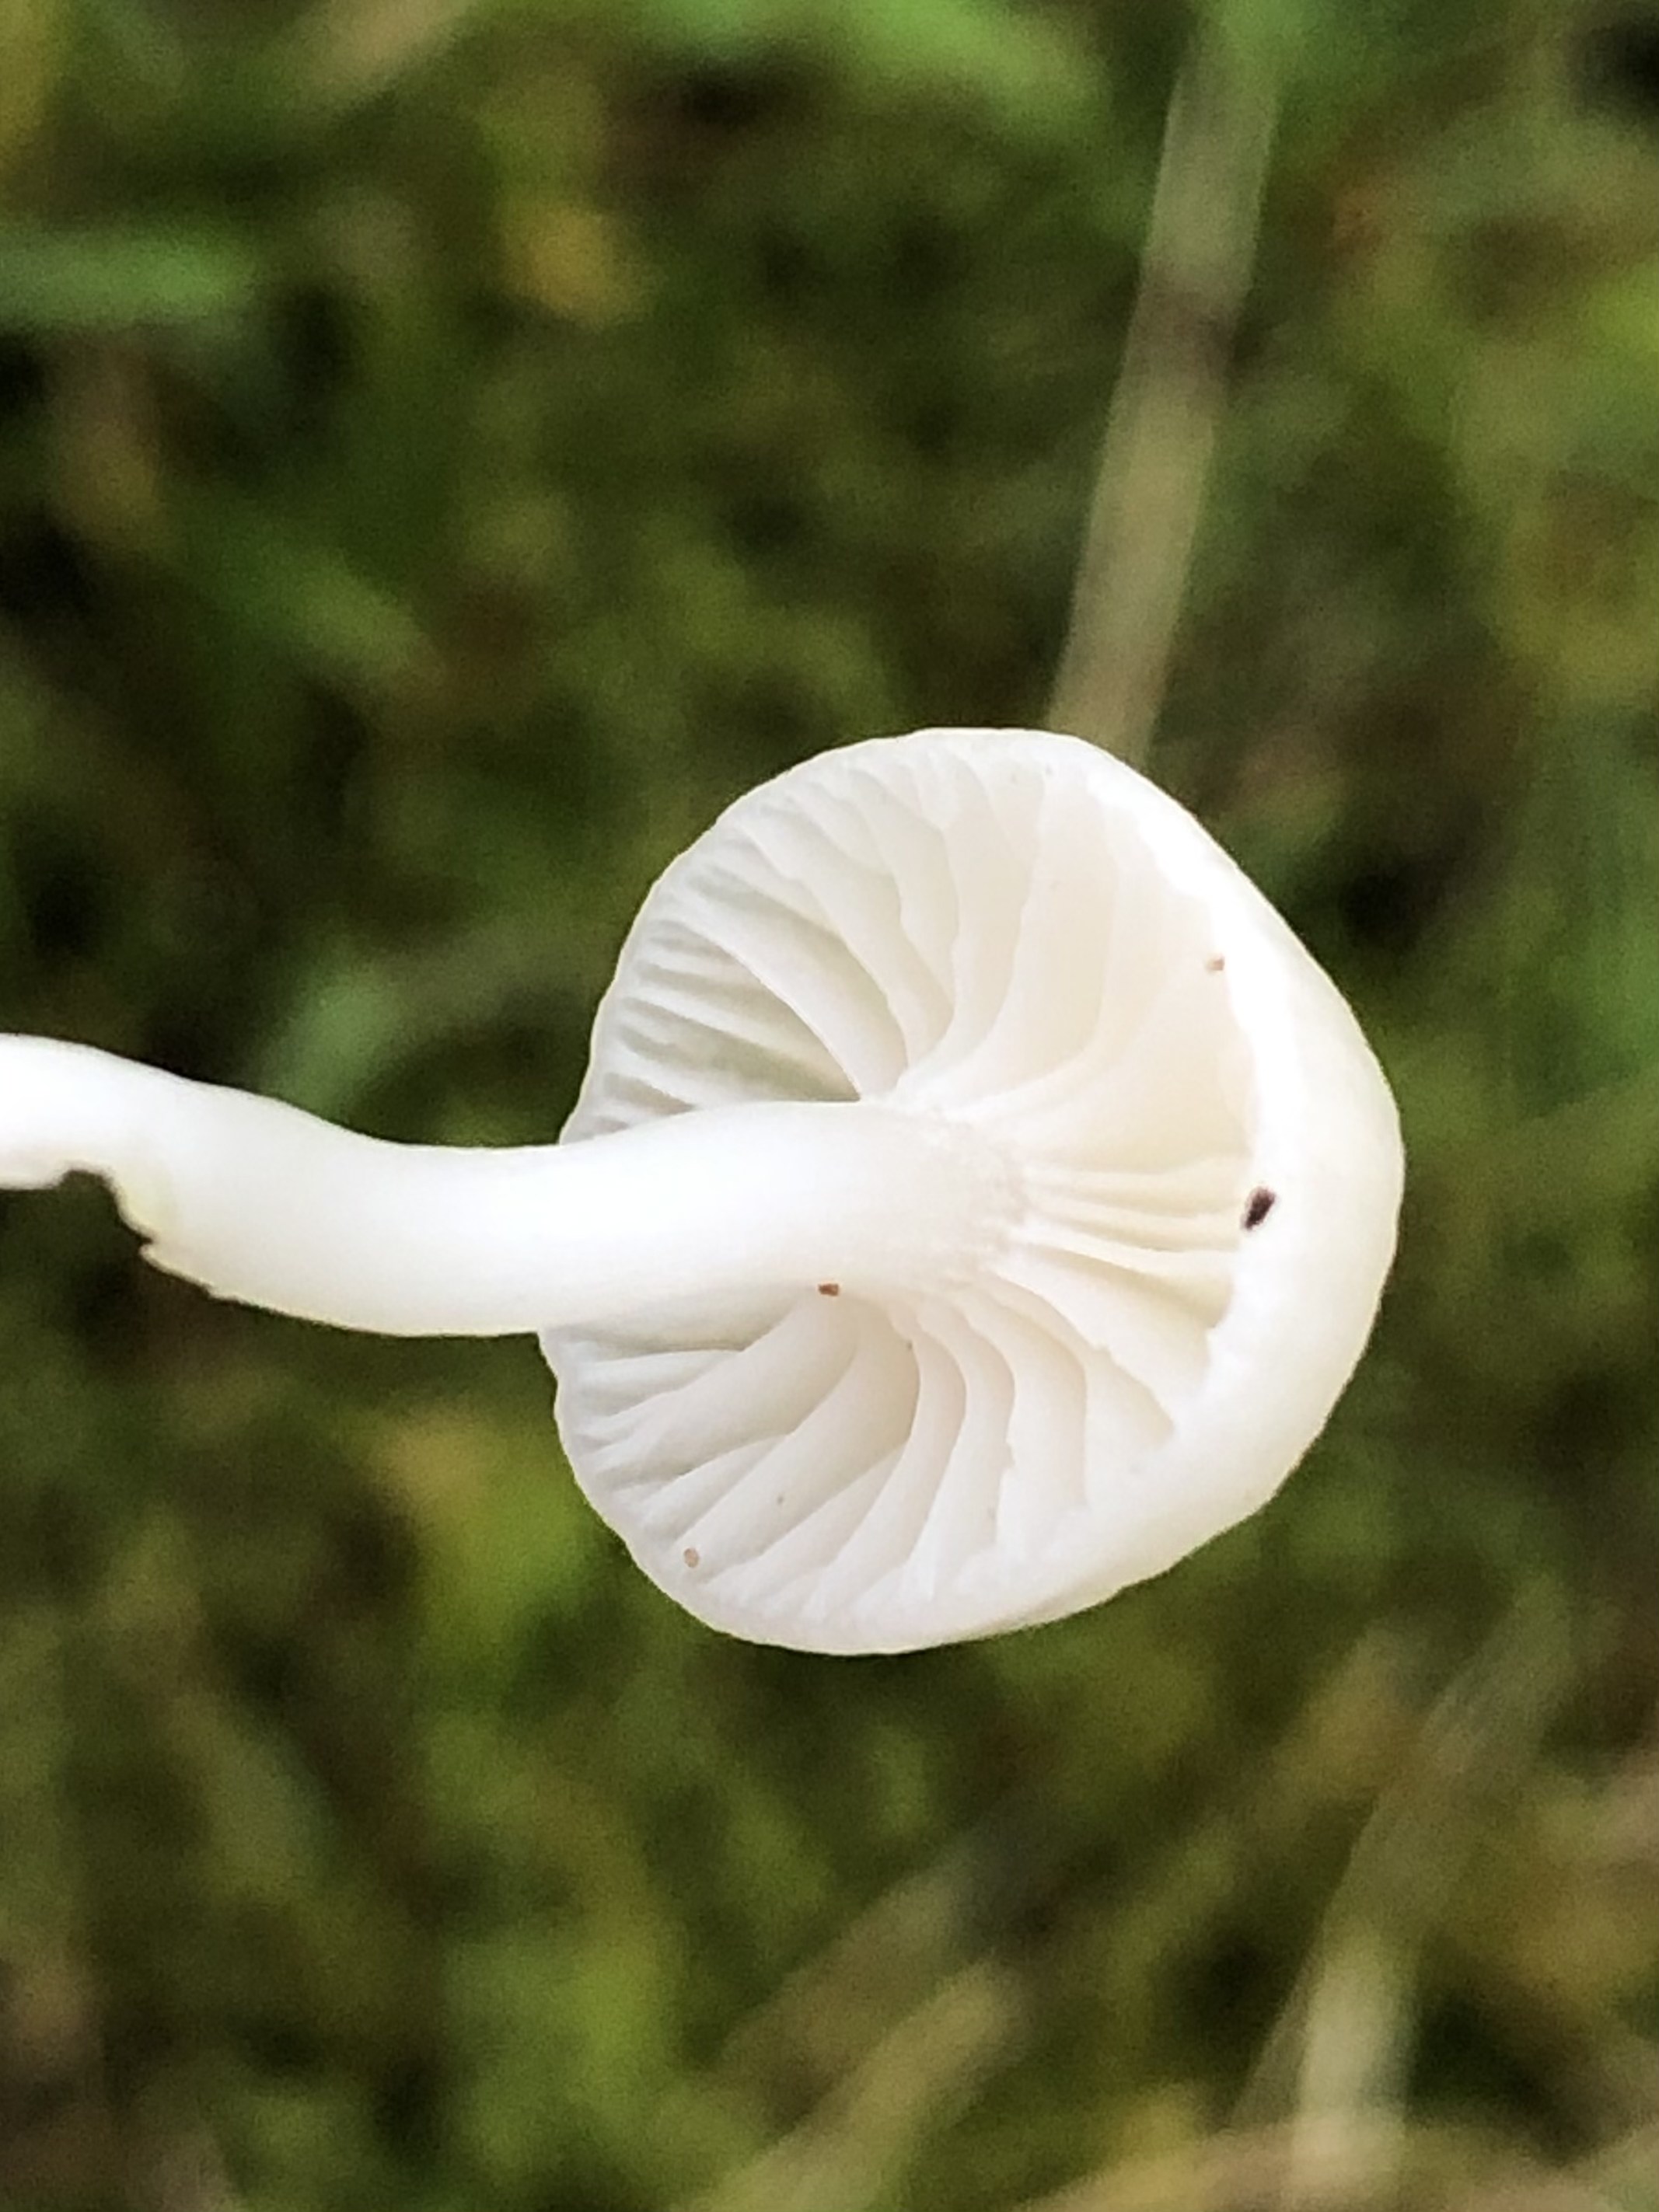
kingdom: Fungi
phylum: Basidiomycota
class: Agaricomycetes
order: Agaricales
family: Hygrophoraceae
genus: Cuphophyllus
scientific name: Cuphophyllus virgineus
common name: snehvid vokshat
